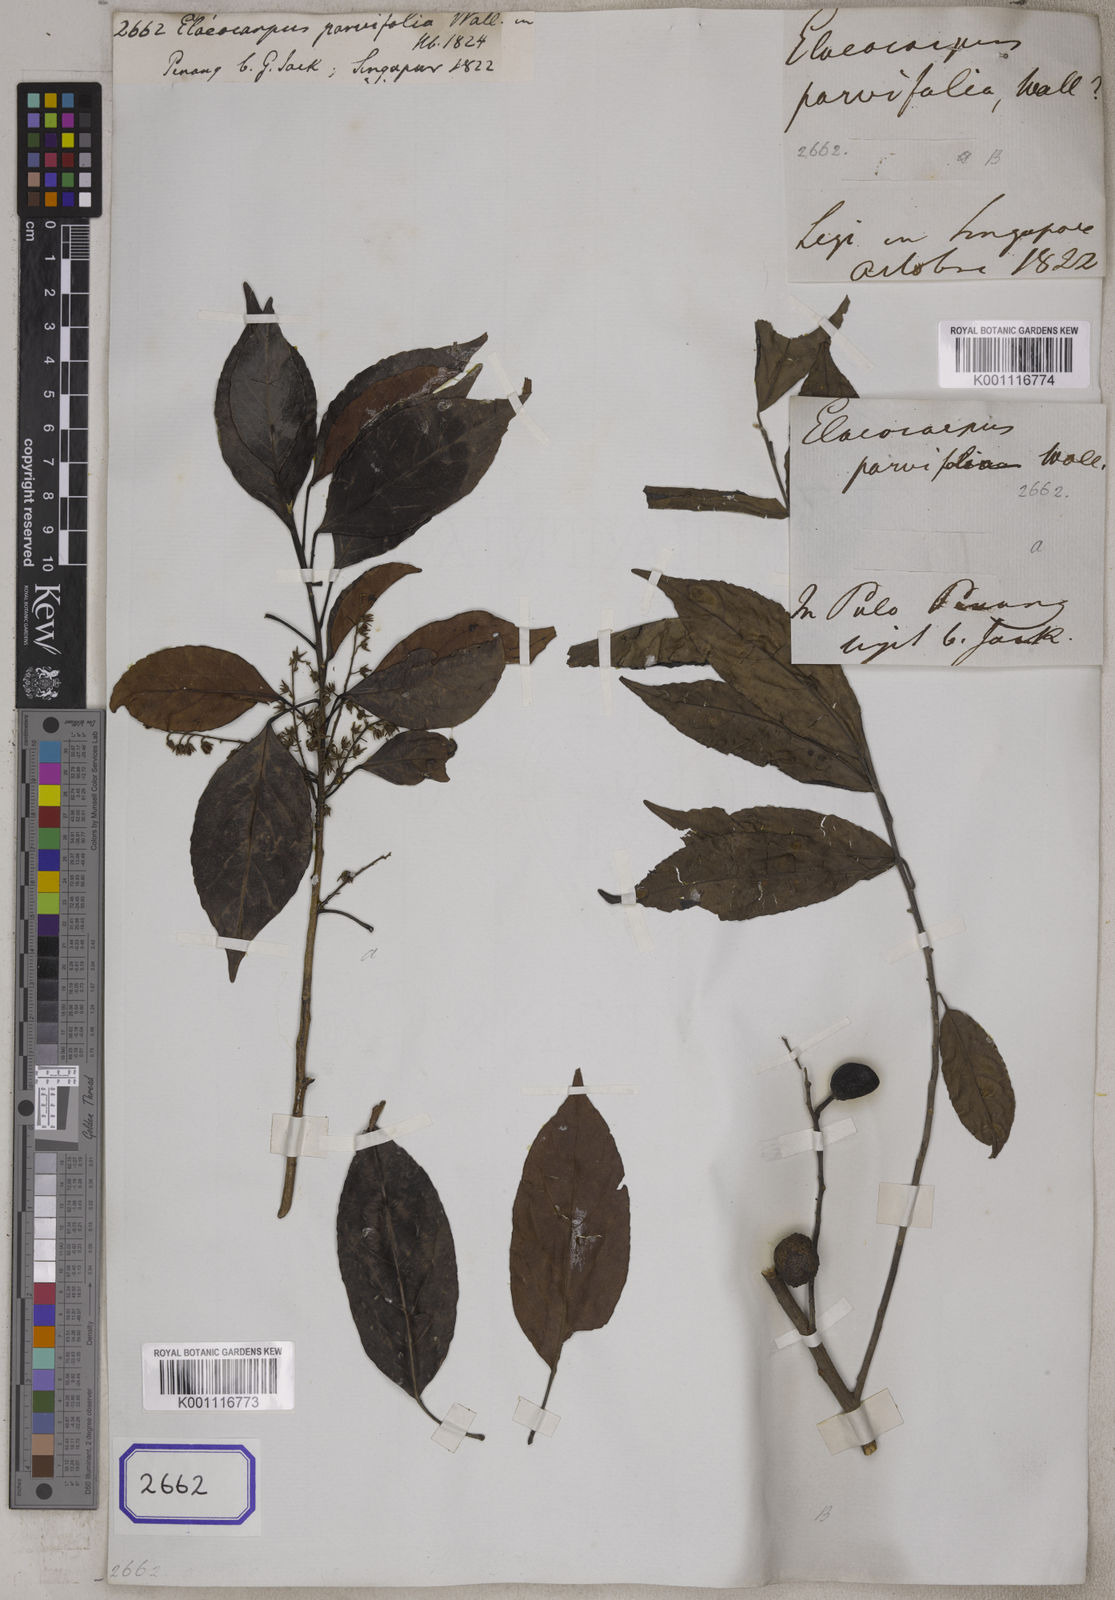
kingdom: Plantae
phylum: Tracheophyta
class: Magnoliopsida
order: Oxalidales
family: Elaeocarpaceae
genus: Elaeocarpus
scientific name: Elaeocarpus
